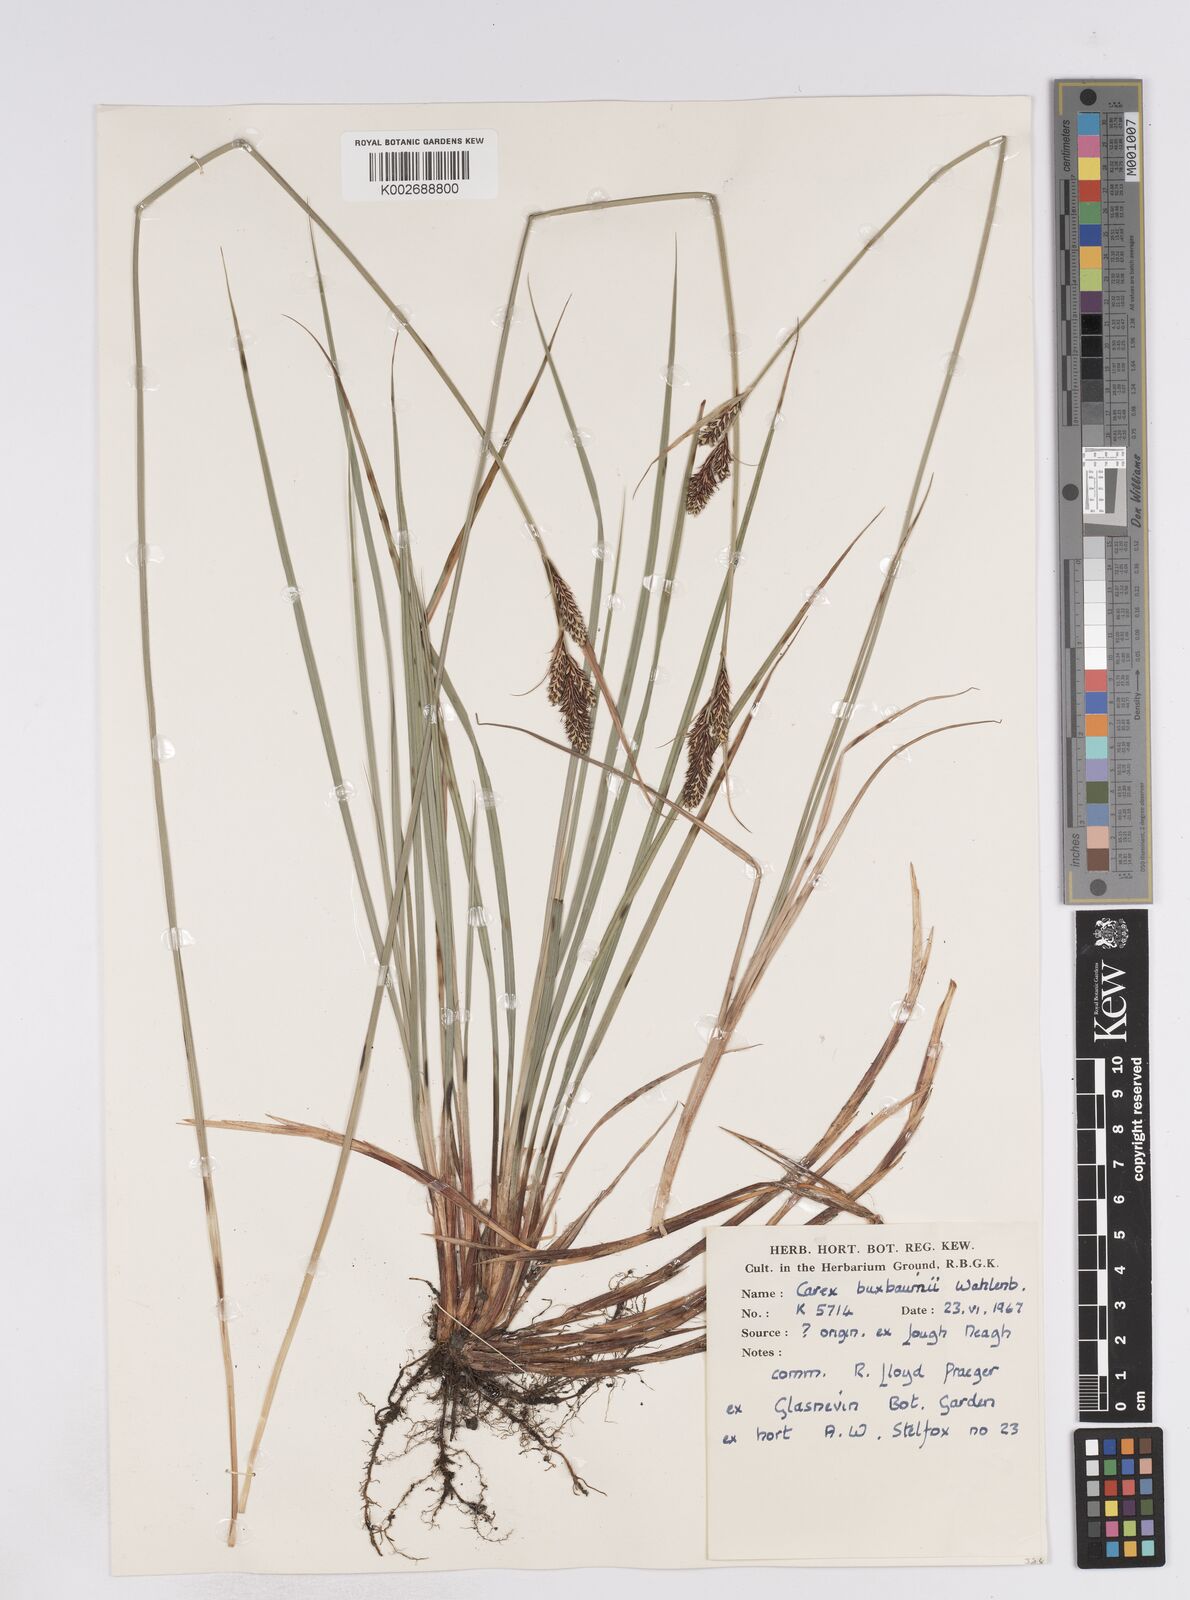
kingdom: Plantae
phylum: Tracheophyta
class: Liliopsida
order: Poales
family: Cyperaceae
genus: Carex
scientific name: Carex buxbaumii
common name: Club sedge
